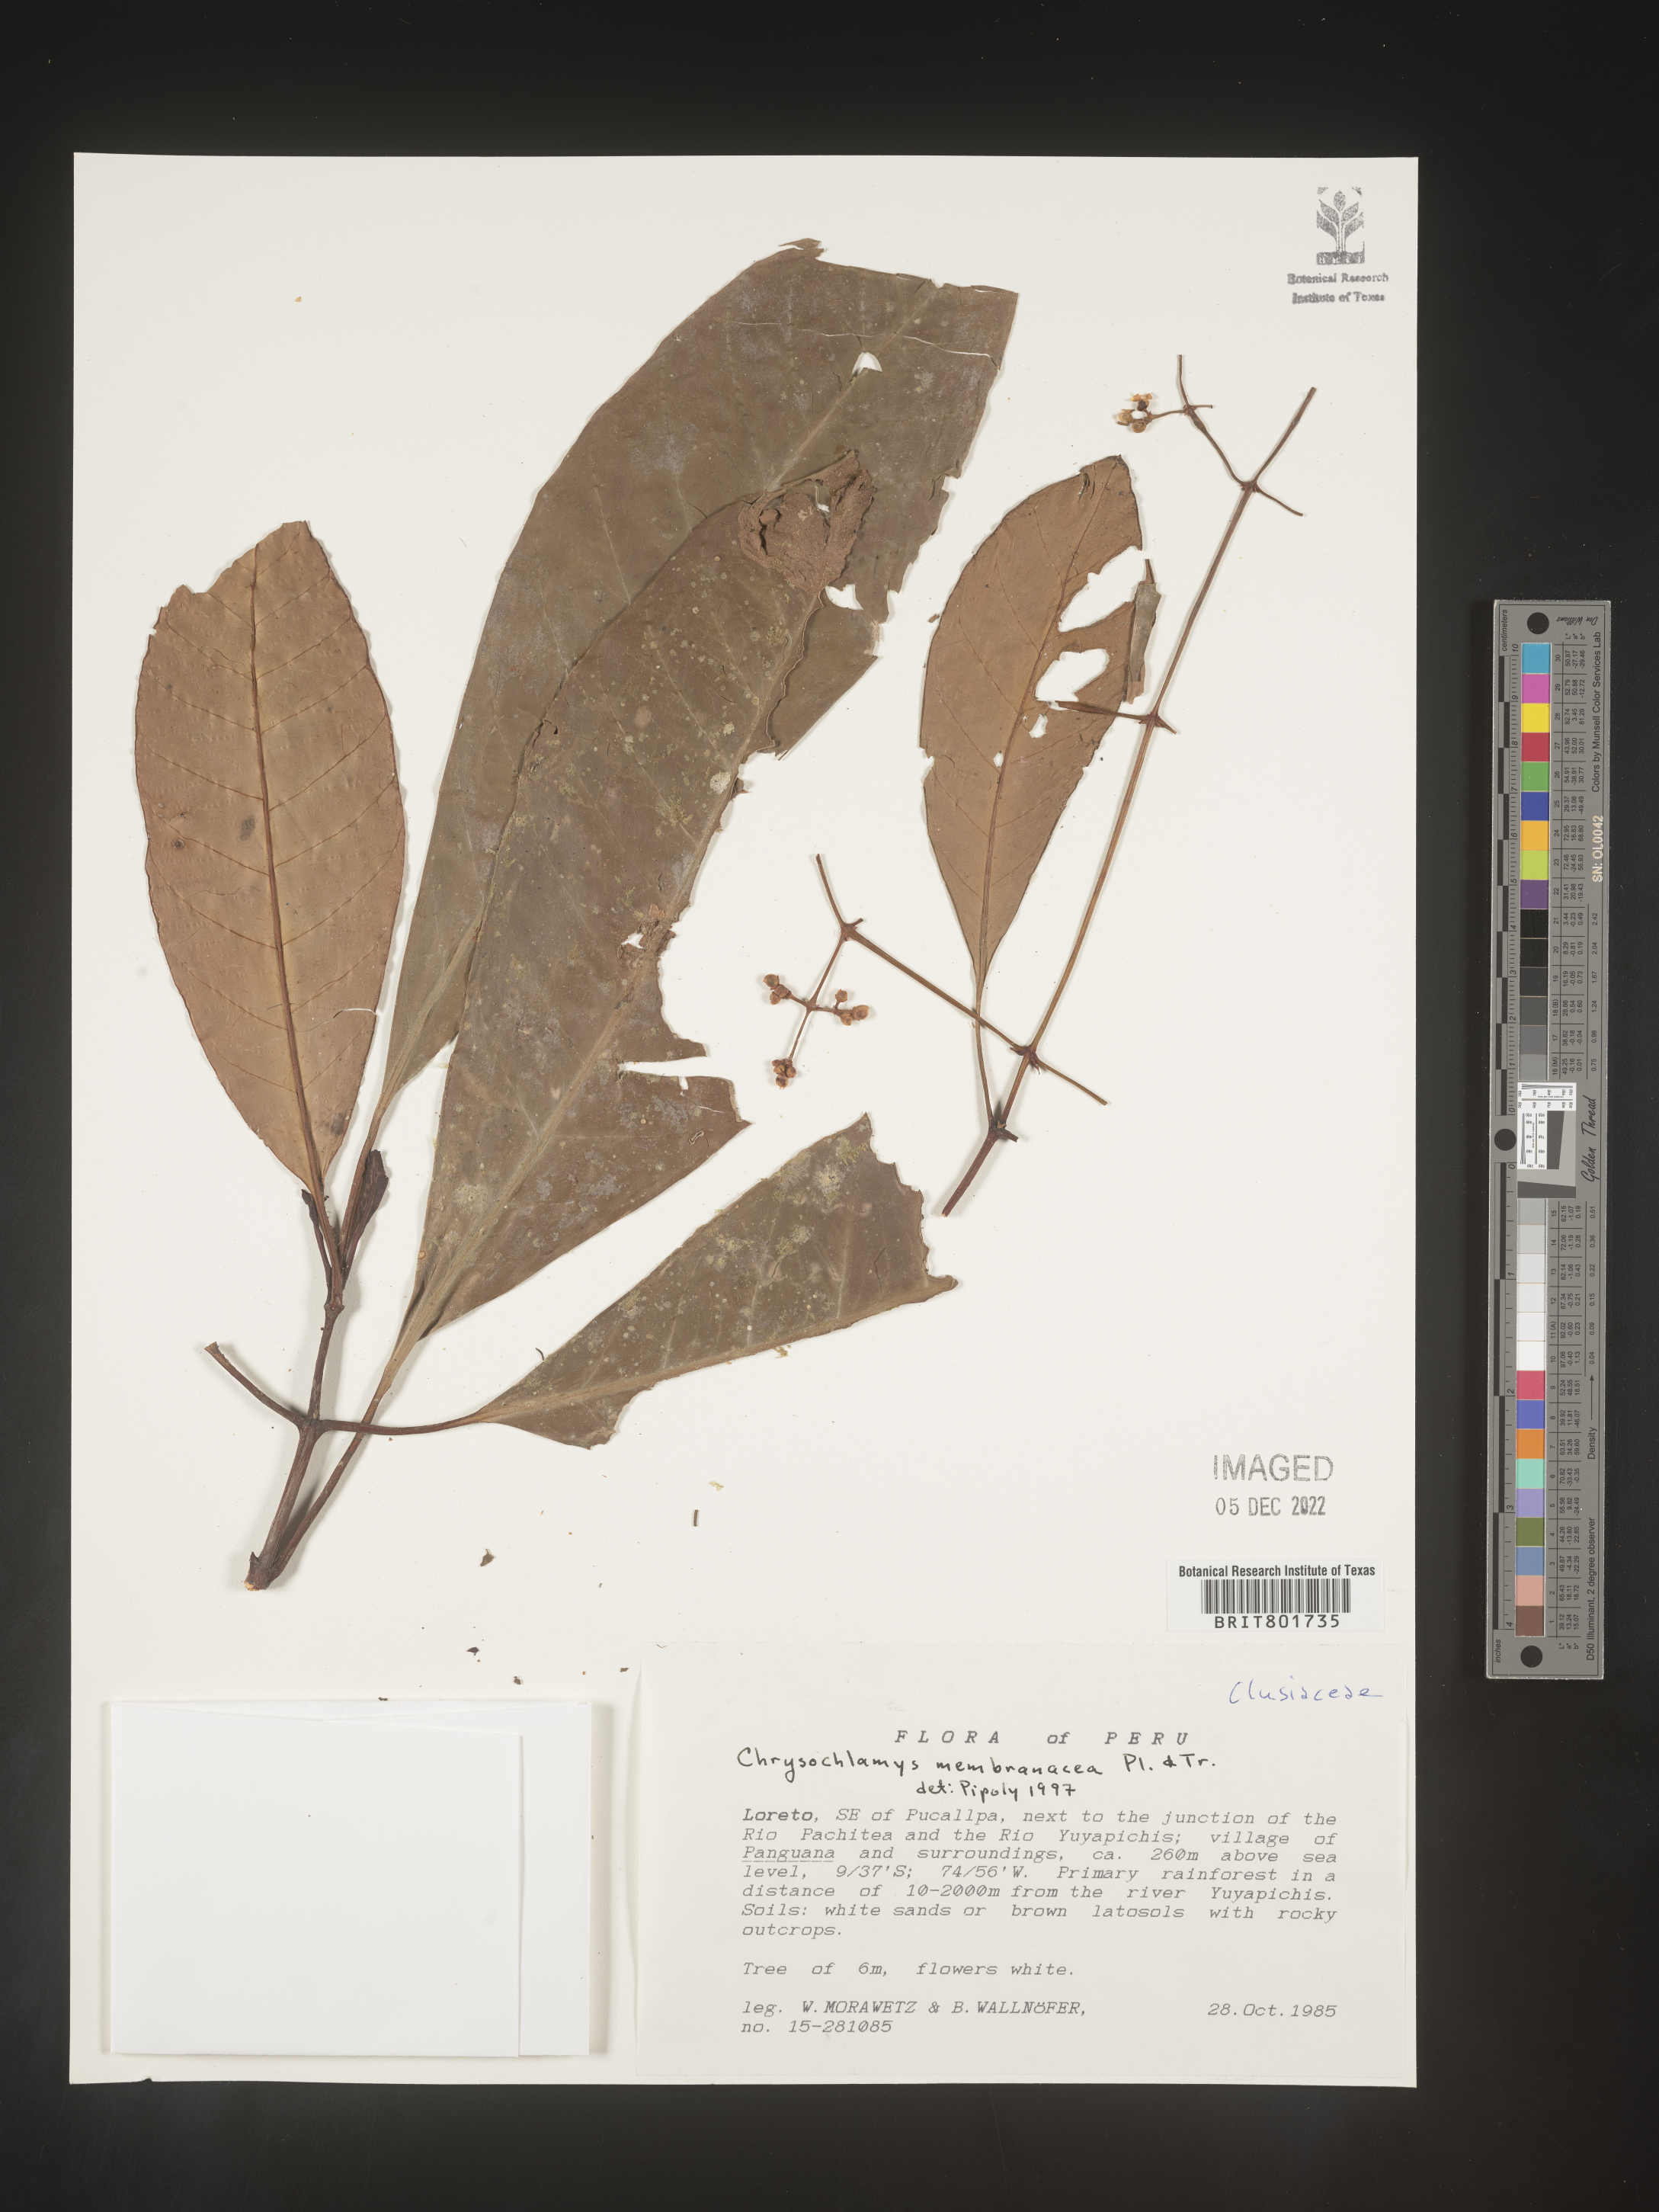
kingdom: Plantae
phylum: Tracheophyta
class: Magnoliopsida
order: Malpighiales
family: Clusiaceae
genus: Chrysochlamys
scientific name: Chrysochlamys membranacea
